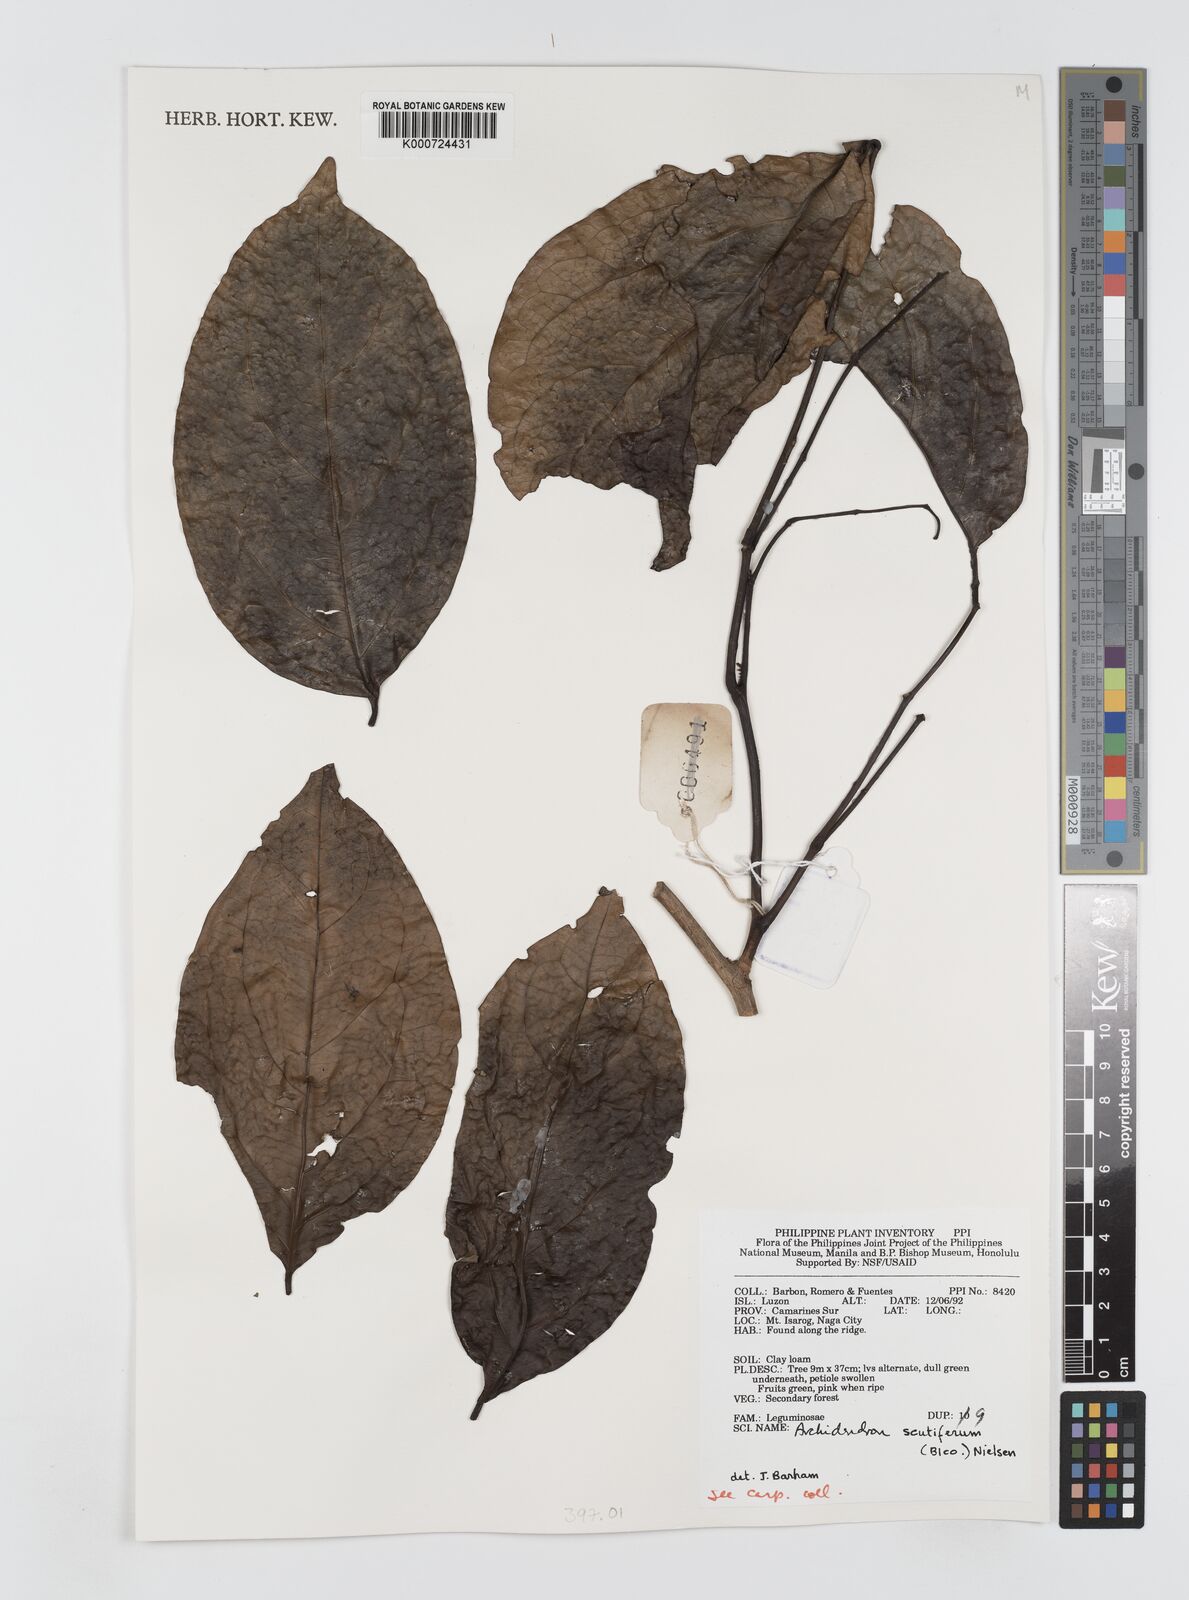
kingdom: Plantae
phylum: Tracheophyta
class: Magnoliopsida
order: Fabales
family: Fabaceae
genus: Archidendron
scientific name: Archidendron scutiferum
